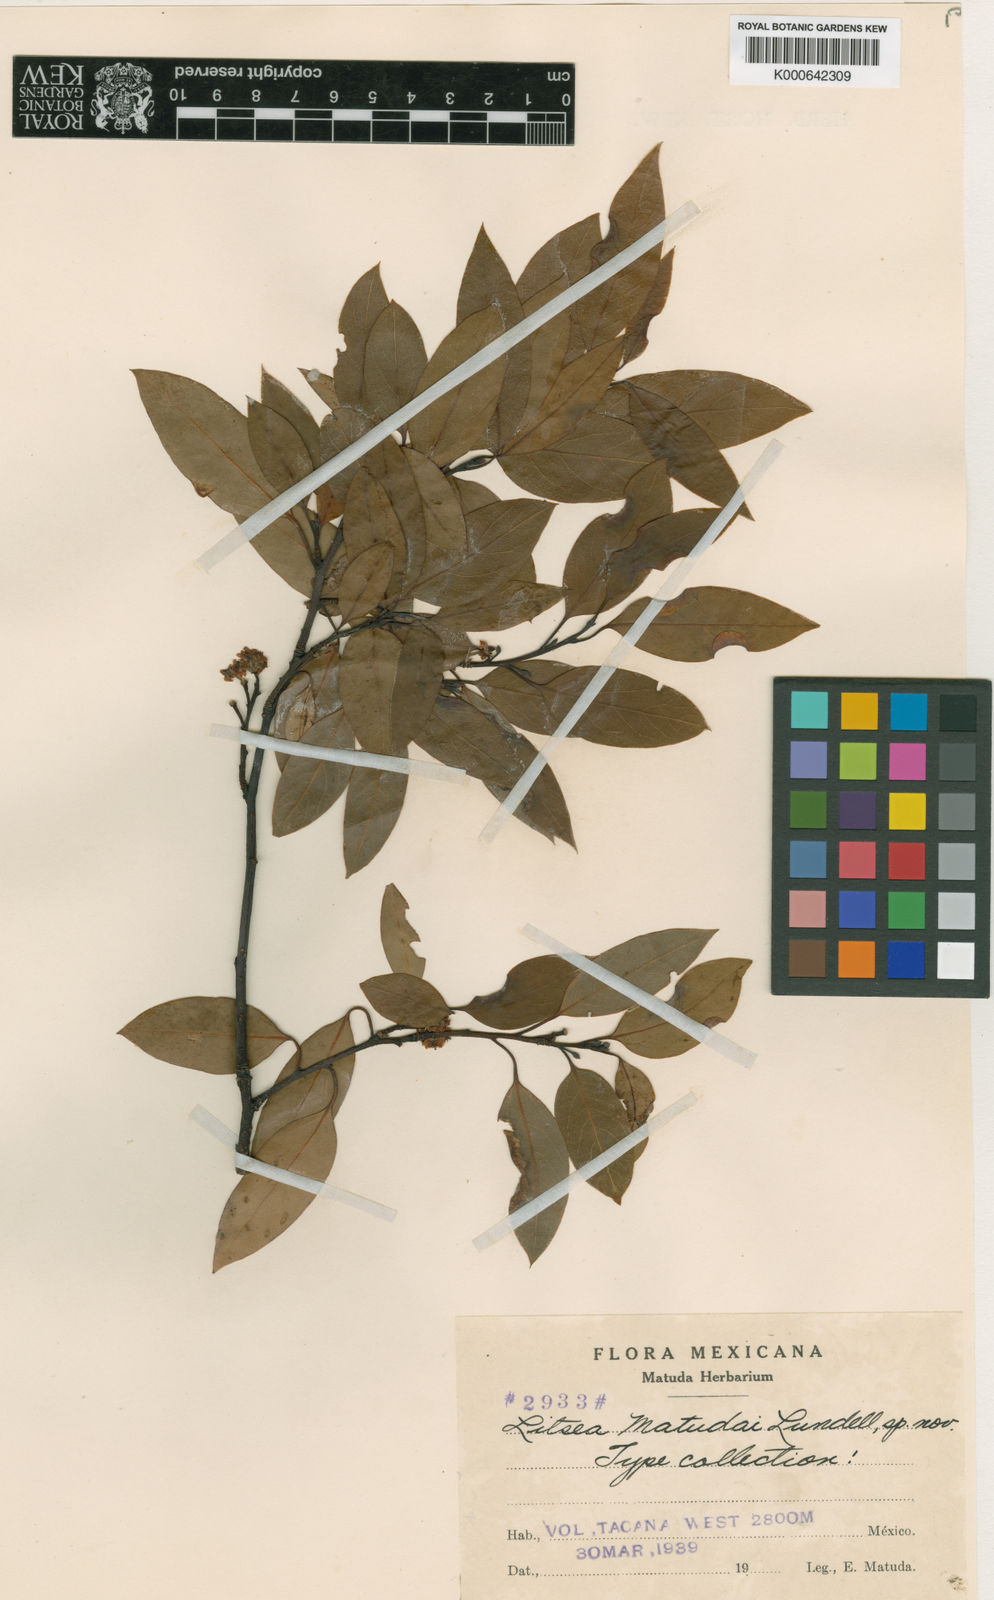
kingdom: Plantae
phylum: Tracheophyta
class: Magnoliopsida
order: Laurales
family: Lauraceae
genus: Licaria
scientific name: Licaria triandra
